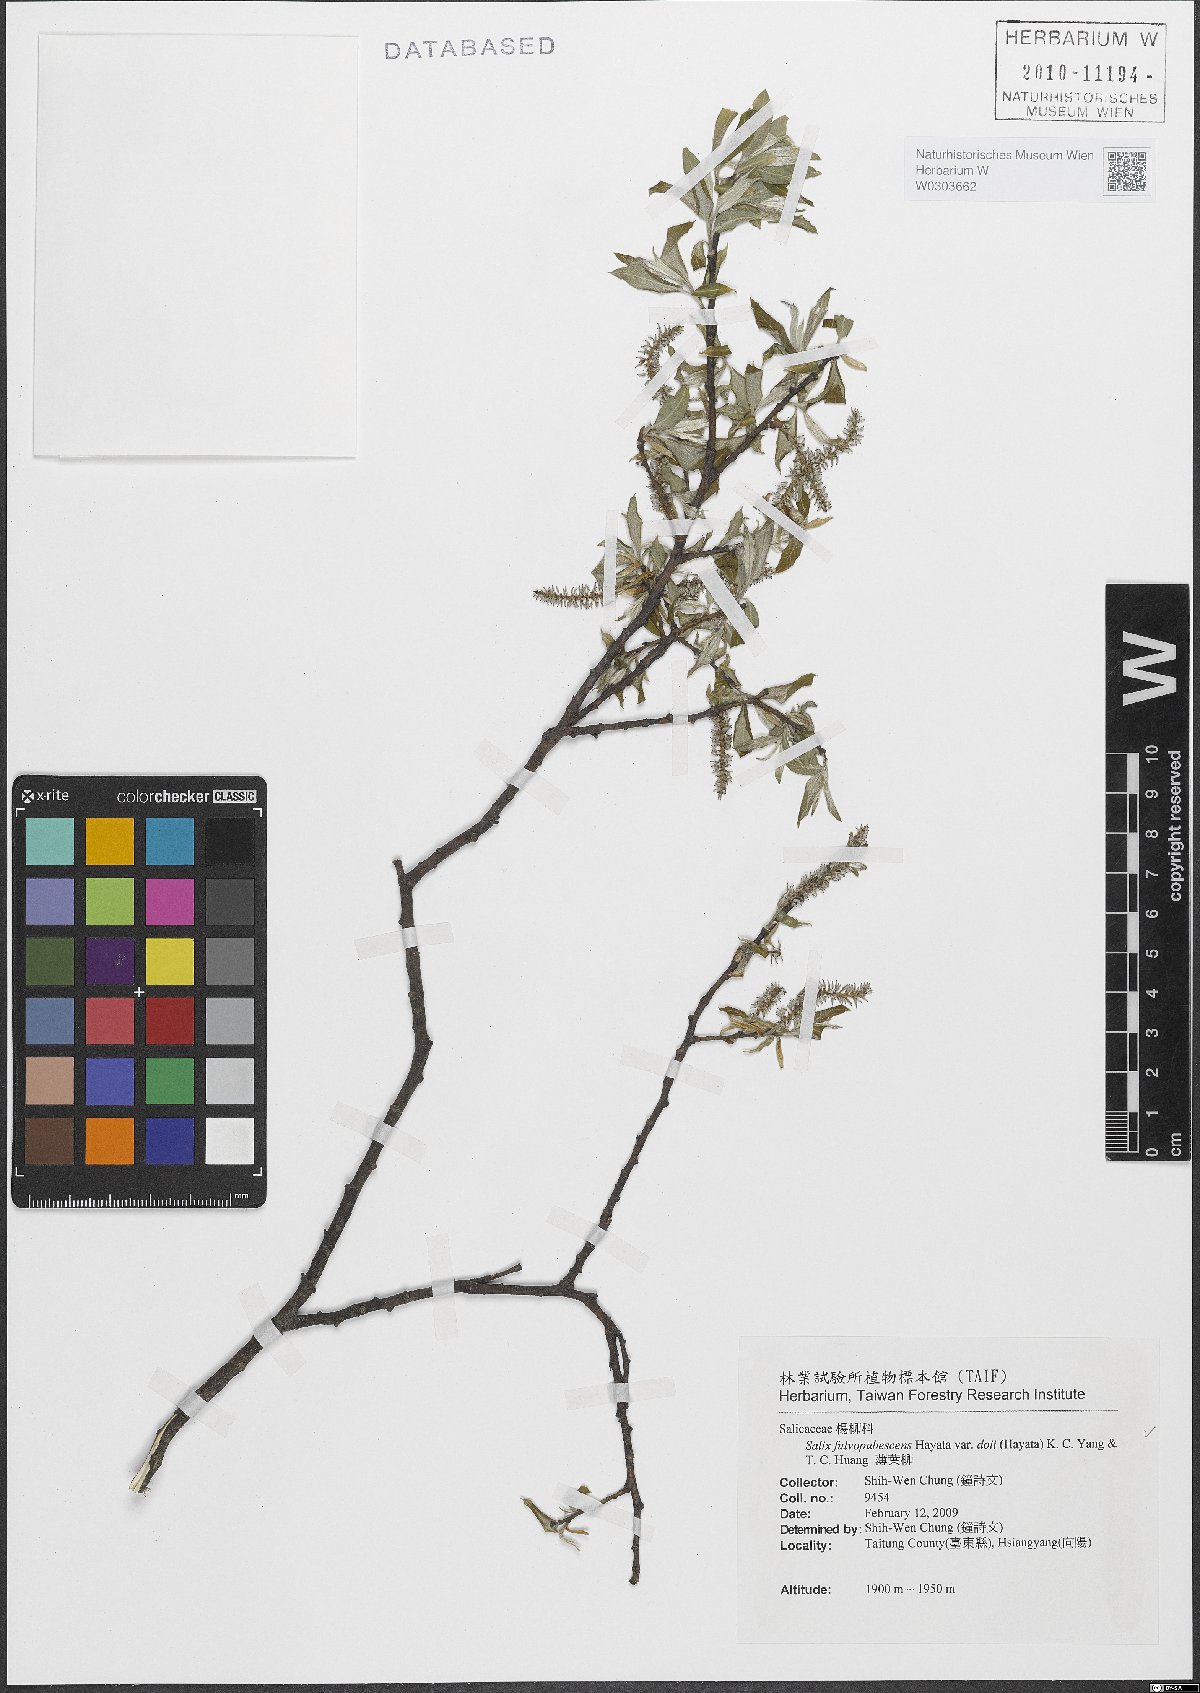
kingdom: Plantae
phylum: Tracheophyta
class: Magnoliopsida
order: Malpighiales
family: Salicaceae
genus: Salix
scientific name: Salix doii
